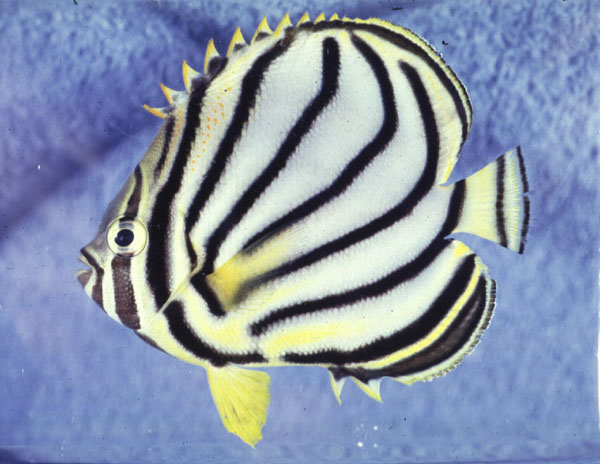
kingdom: Animalia
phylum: Chordata
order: Perciformes
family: Chaetodontidae
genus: Chaetodon
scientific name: Chaetodon meyeri
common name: Meyer's butterflyfish
